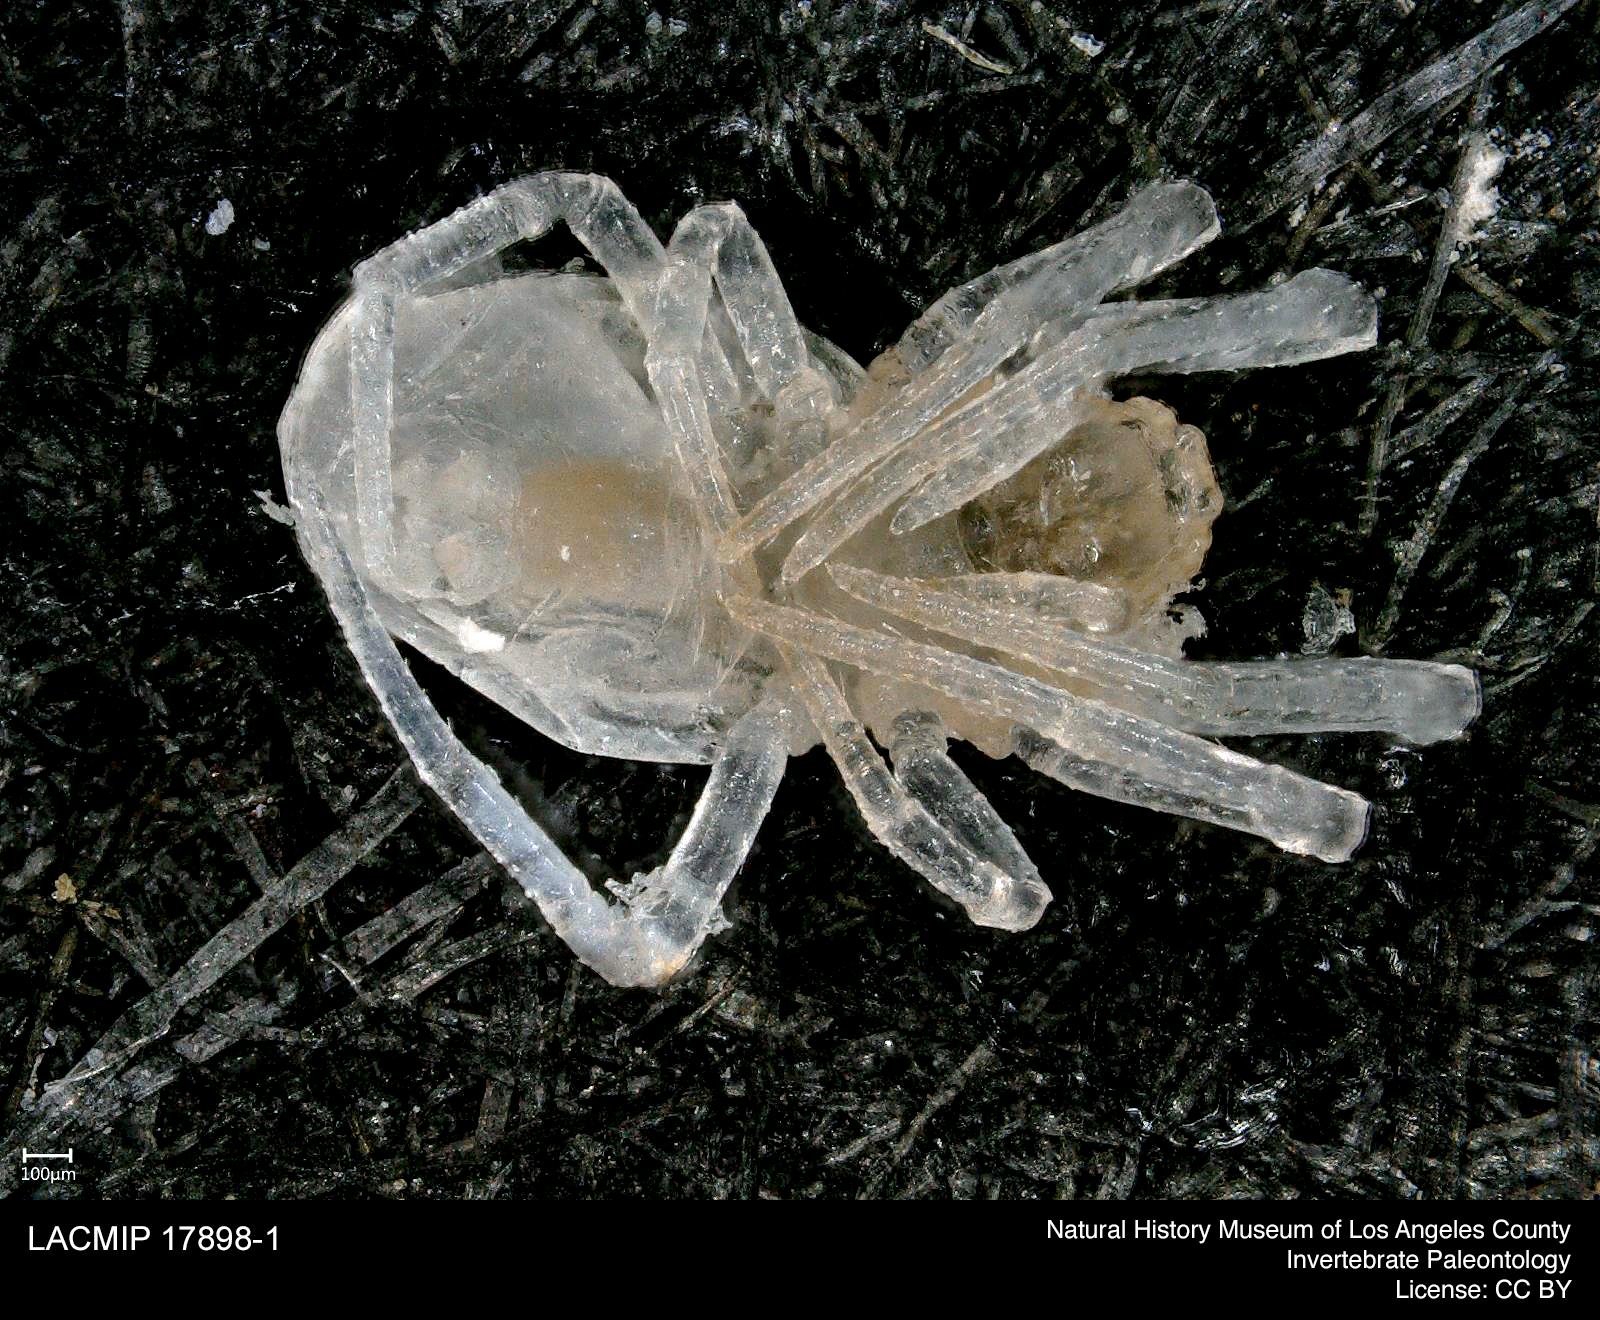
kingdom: Animalia
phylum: Arthropoda
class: Arachnida
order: Araneae
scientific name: Araneae
